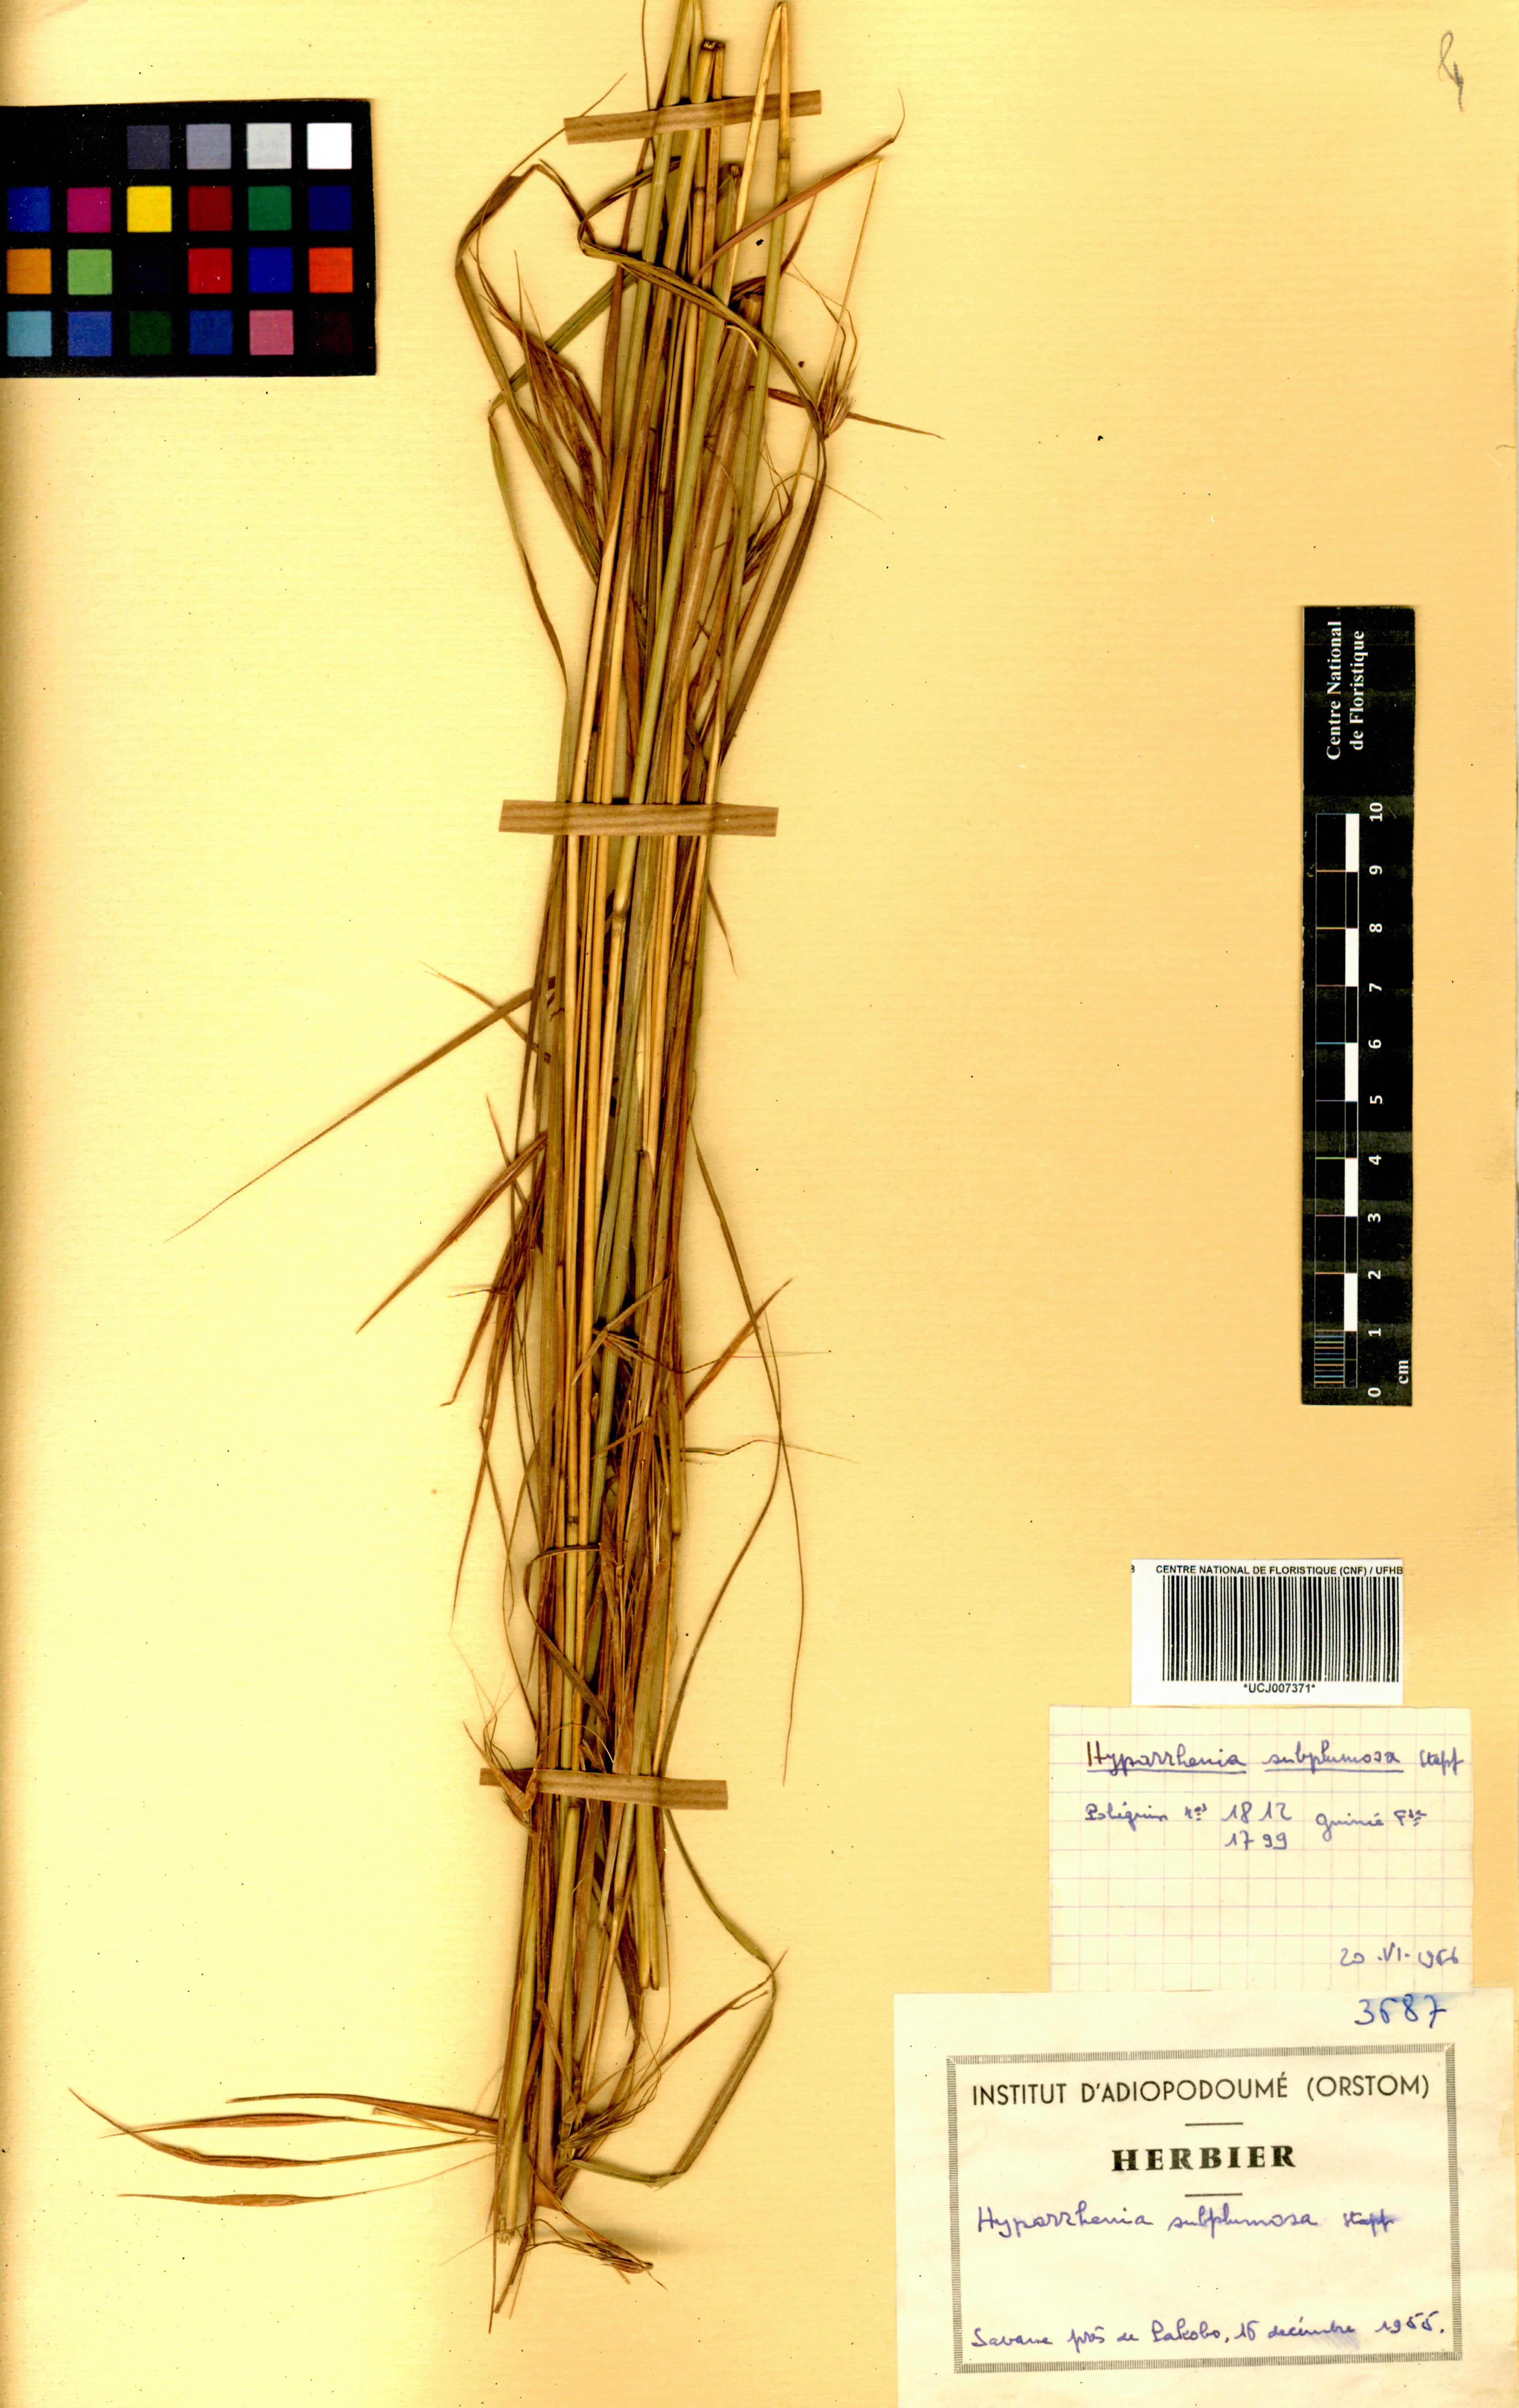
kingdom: Plantae
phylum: Tracheophyta
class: Liliopsida
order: Poales
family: Poaceae
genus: Hyparrhenia
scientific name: Hyparrhenia subplumosa
